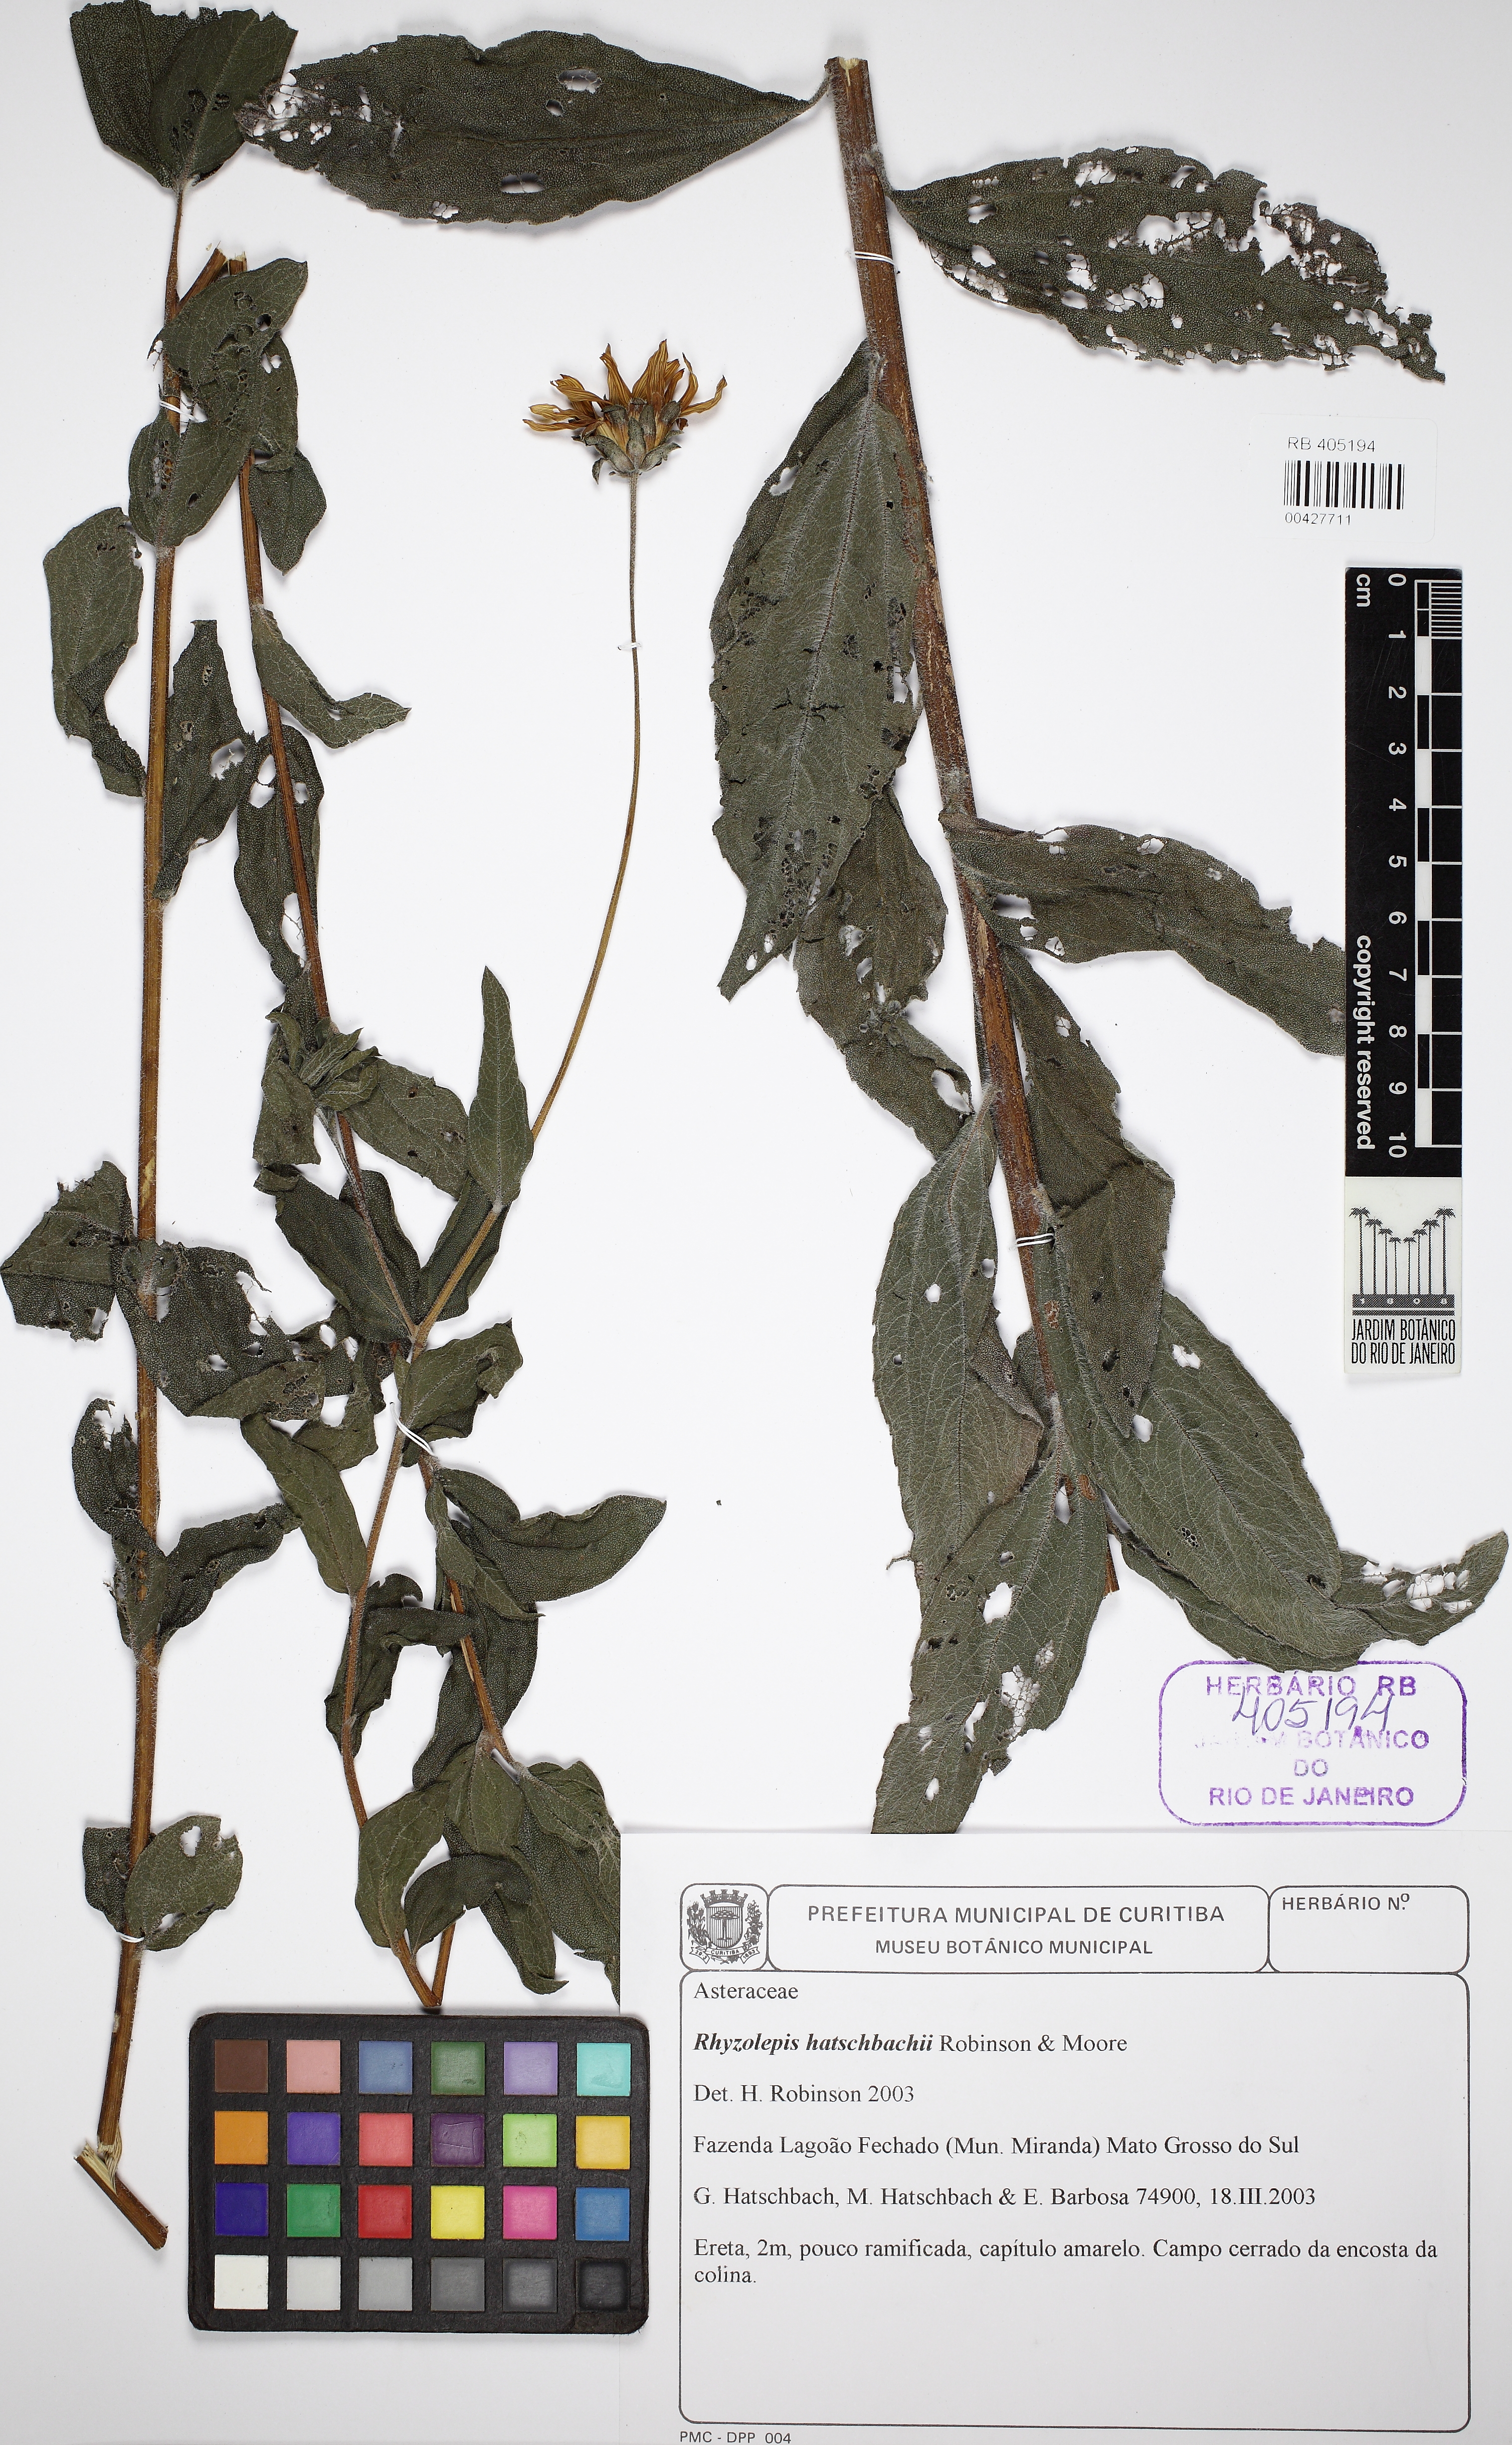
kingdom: Plantae
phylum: Tracheophyta
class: Magnoliopsida
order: Asterales
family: Asteraceae
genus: Aldama
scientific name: Aldama hatschbachii
